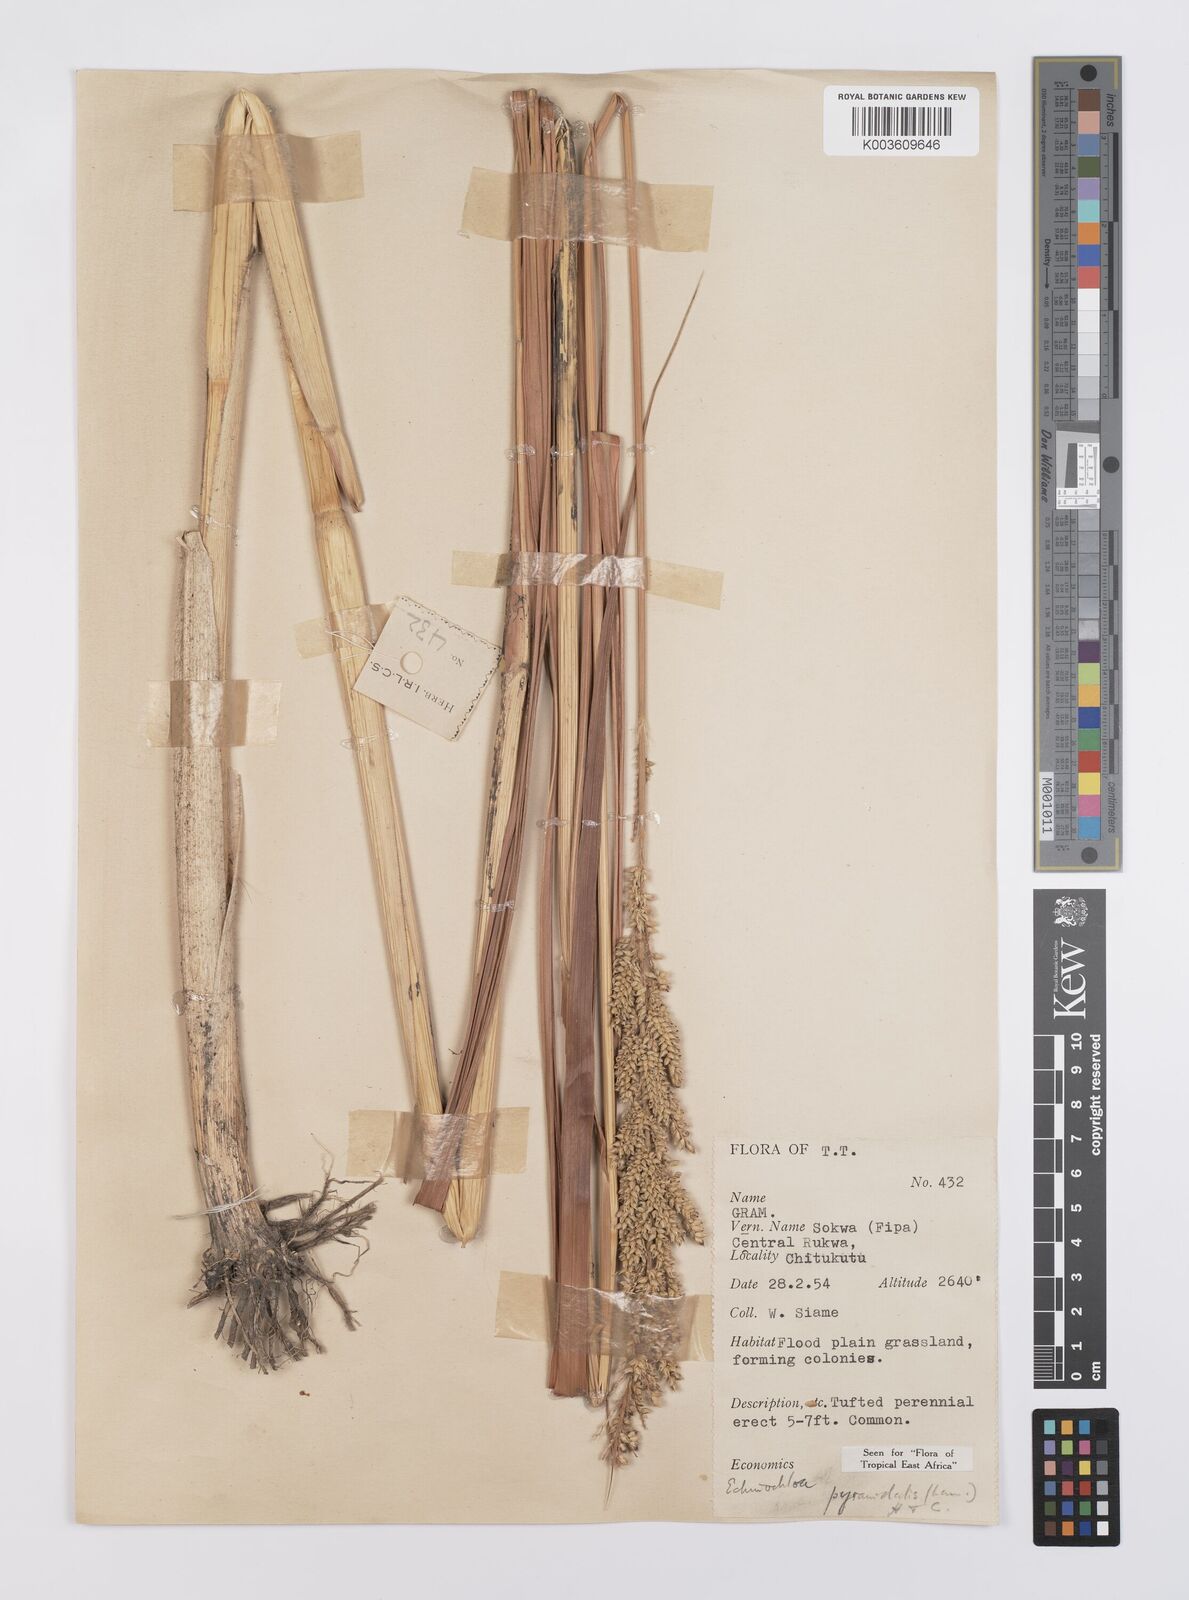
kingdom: Plantae
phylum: Tracheophyta
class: Liliopsida
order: Poales
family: Poaceae
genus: Echinochloa
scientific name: Echinochloa pyramidalis
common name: Antelope grass
